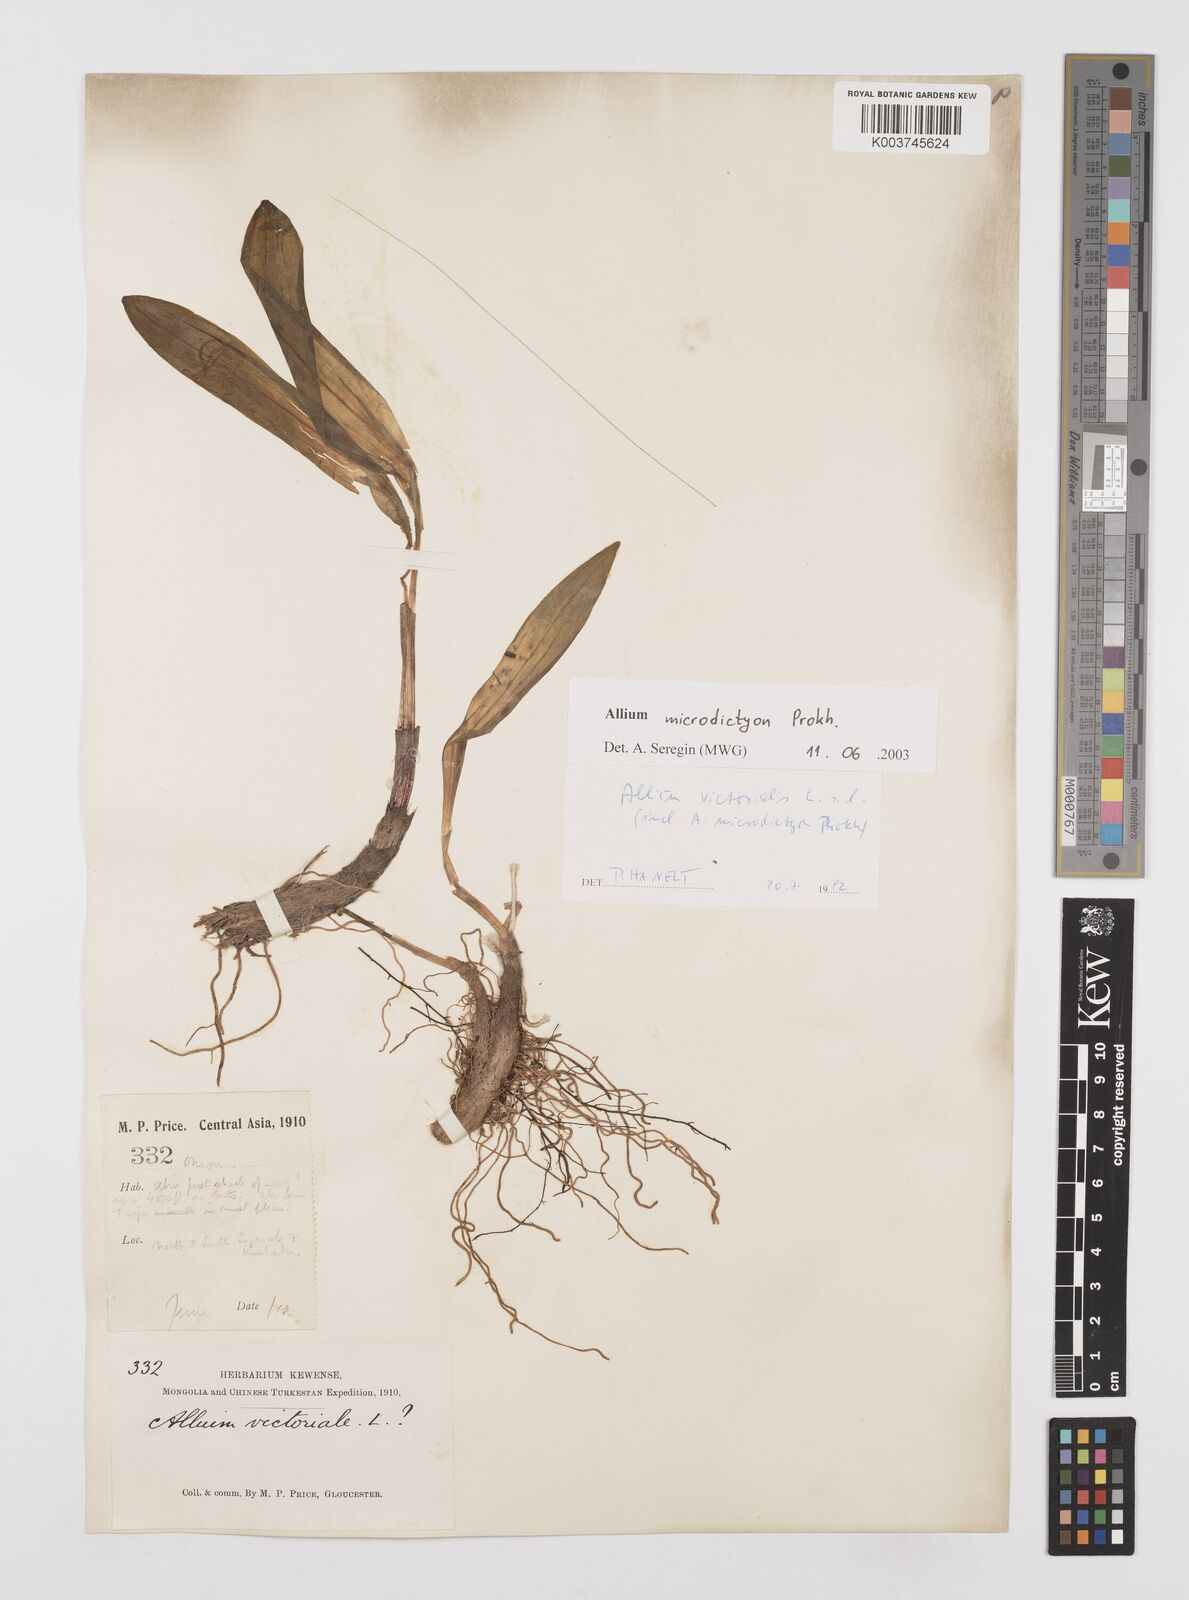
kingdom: Plantae
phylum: Tracheophyta
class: Liliopsida
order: Asparagales
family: Amaryllidaceae
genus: Allium
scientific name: Allium victorialis
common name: Alpine leek
